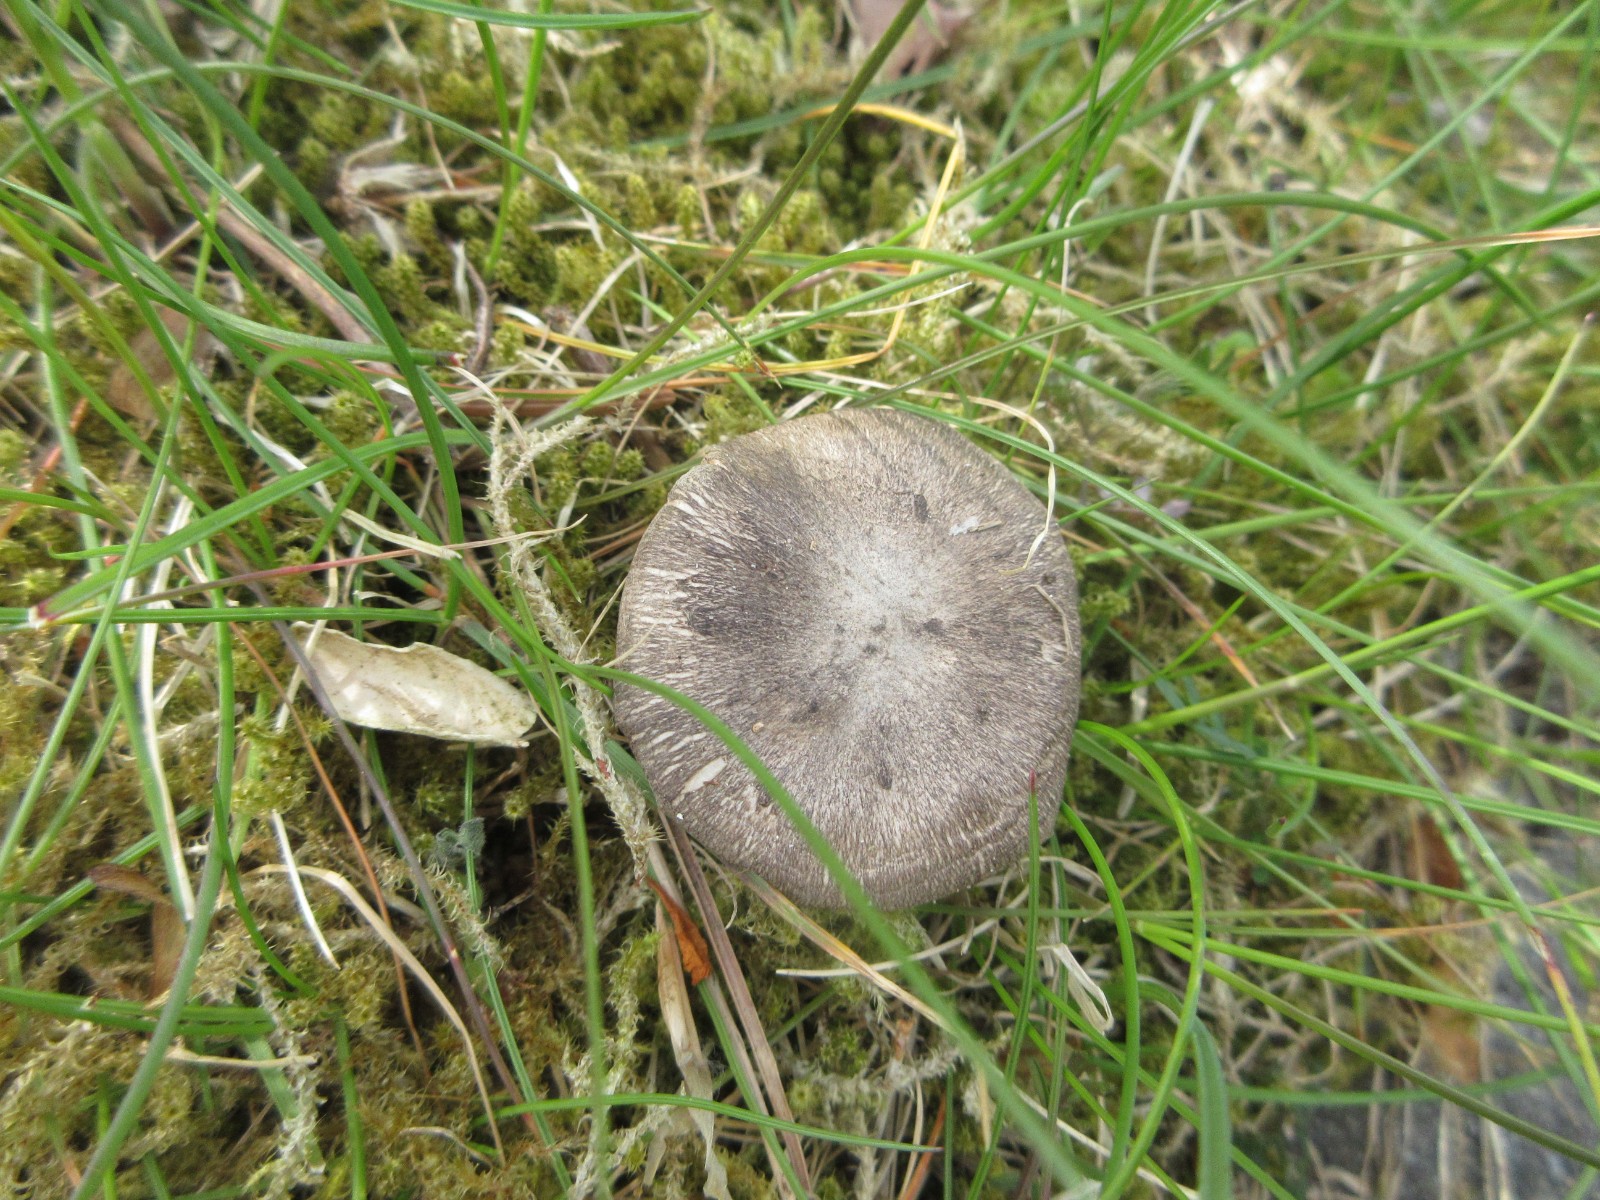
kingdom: Fungi
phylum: Basidiomycota
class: Agaricomycetes
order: Agaricales
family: Tricholomataceae
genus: Tricholoma
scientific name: Tricholoma terreum
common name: jordfarvet ridderhat
